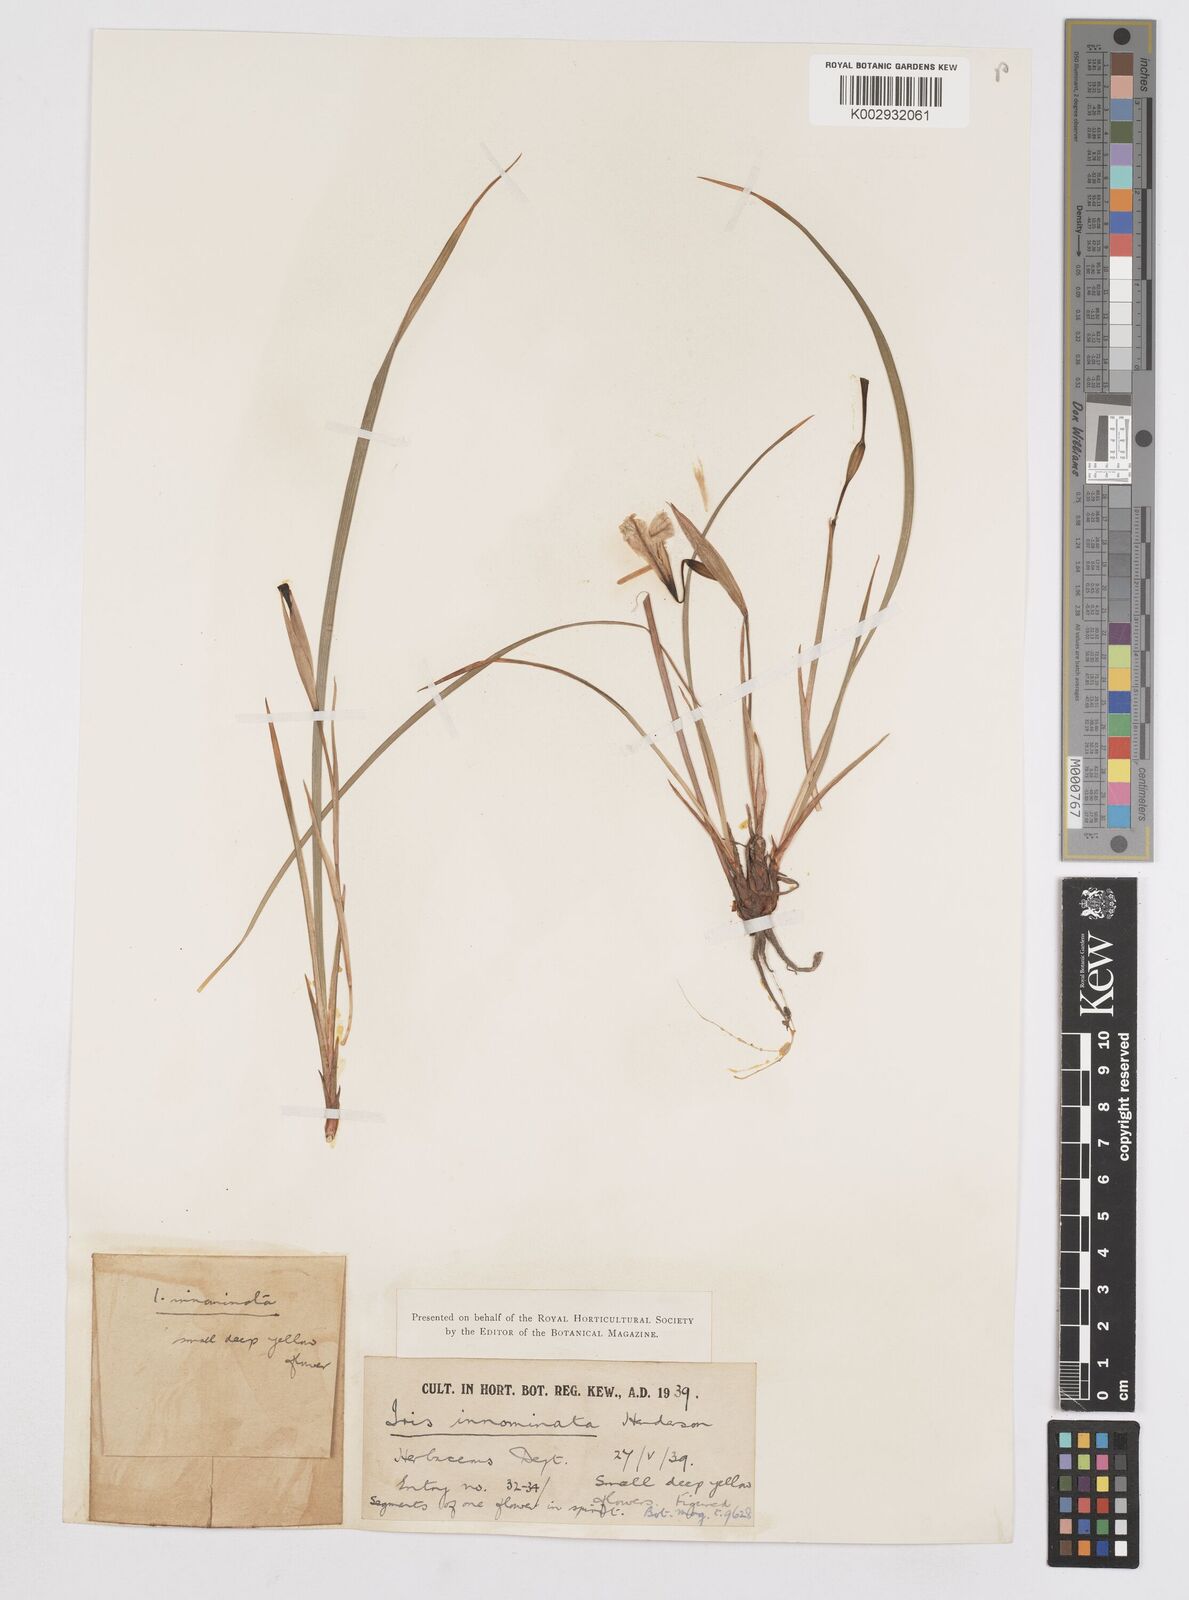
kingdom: Plantae
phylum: Tracheophyta
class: Liliopsida
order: Asparagales
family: Iridaceae
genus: Iris
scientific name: Iris innominata
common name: Del norte county iris
